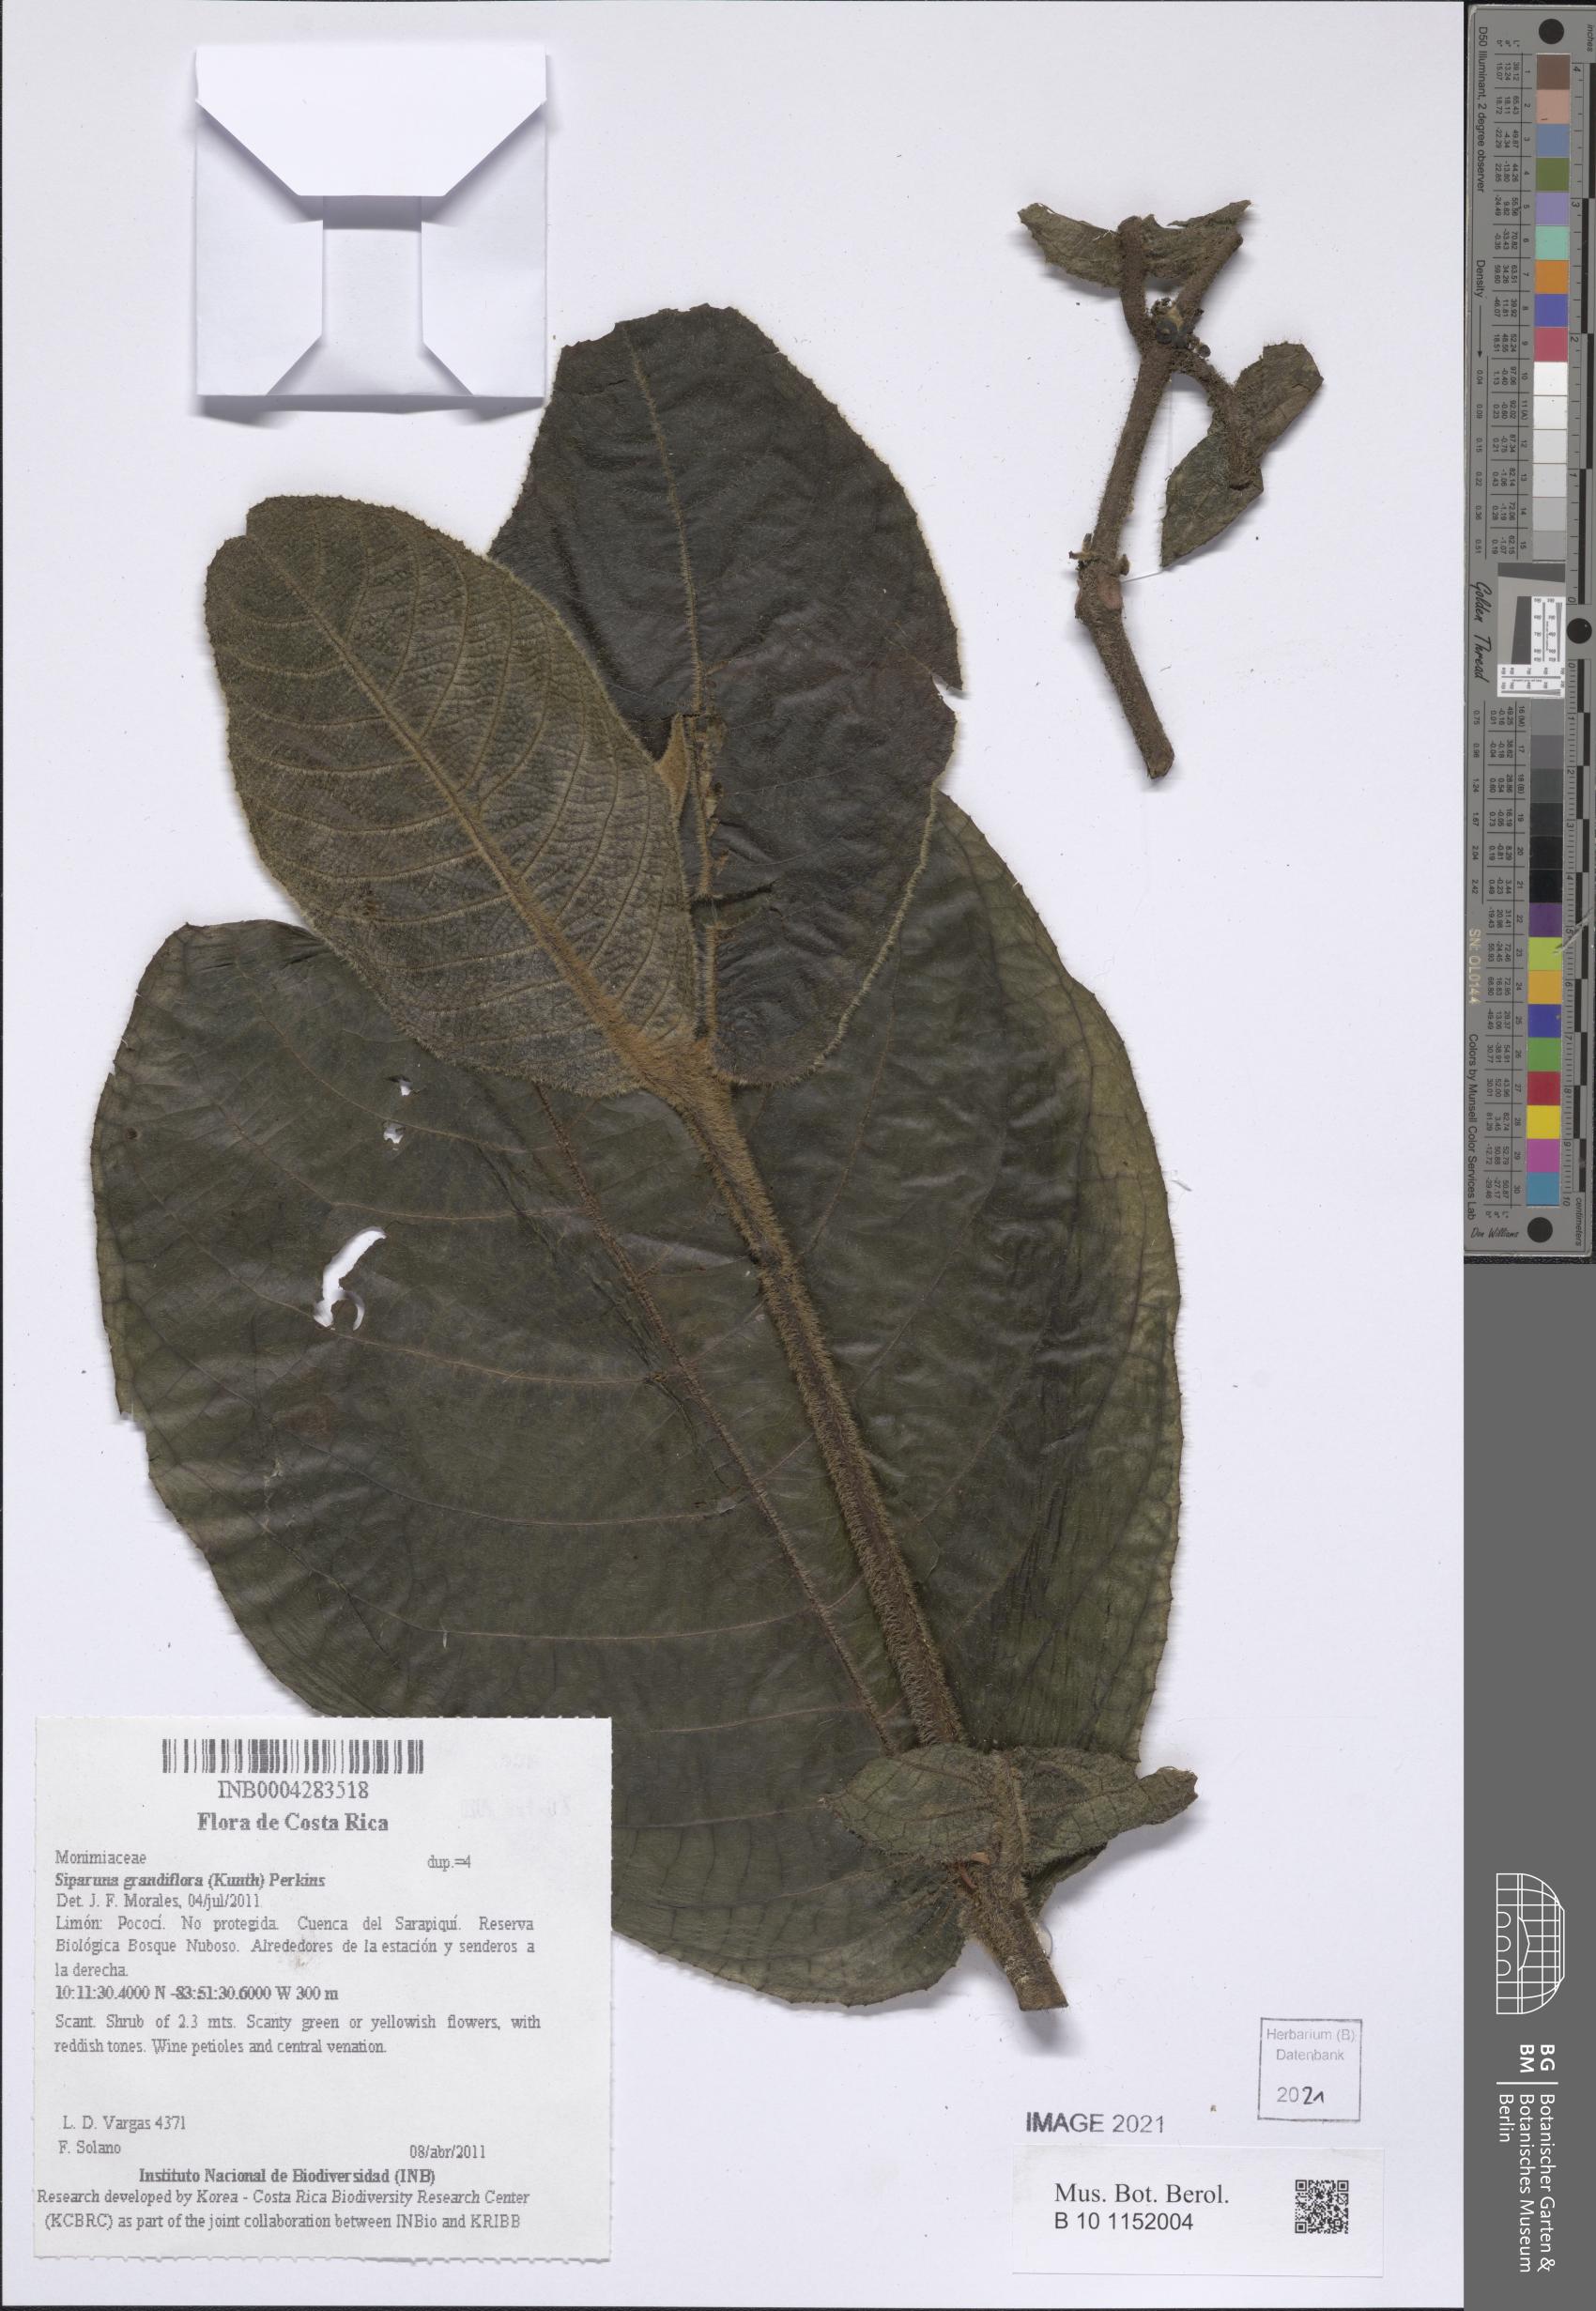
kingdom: Plantae
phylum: Tracheophyta
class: Magnoliopsida
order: Laurales
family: Siparunaceae
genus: Siparuna
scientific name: Siparuna grandiflora
